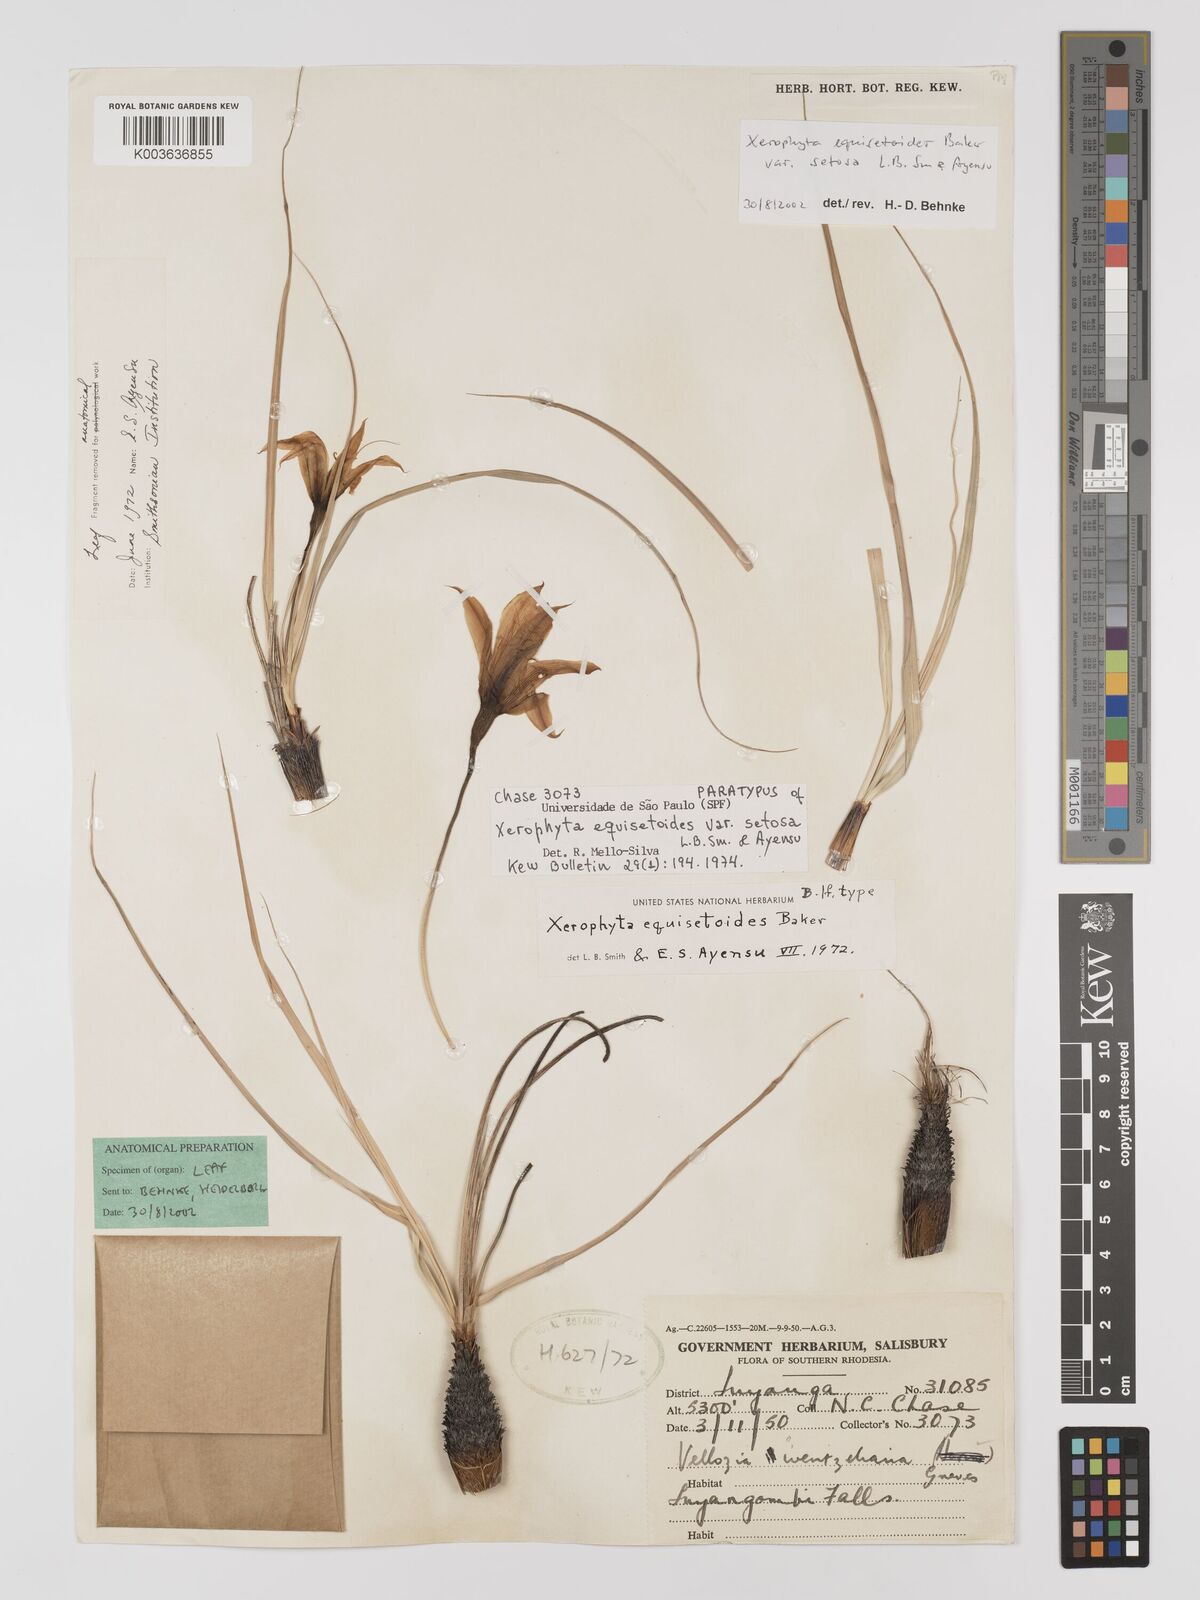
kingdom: Plantae
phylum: Tracheophyta
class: Liliopsida
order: Pandanales
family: Velloziaceae
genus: Xerophyta
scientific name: Xerophyta equisetoides
